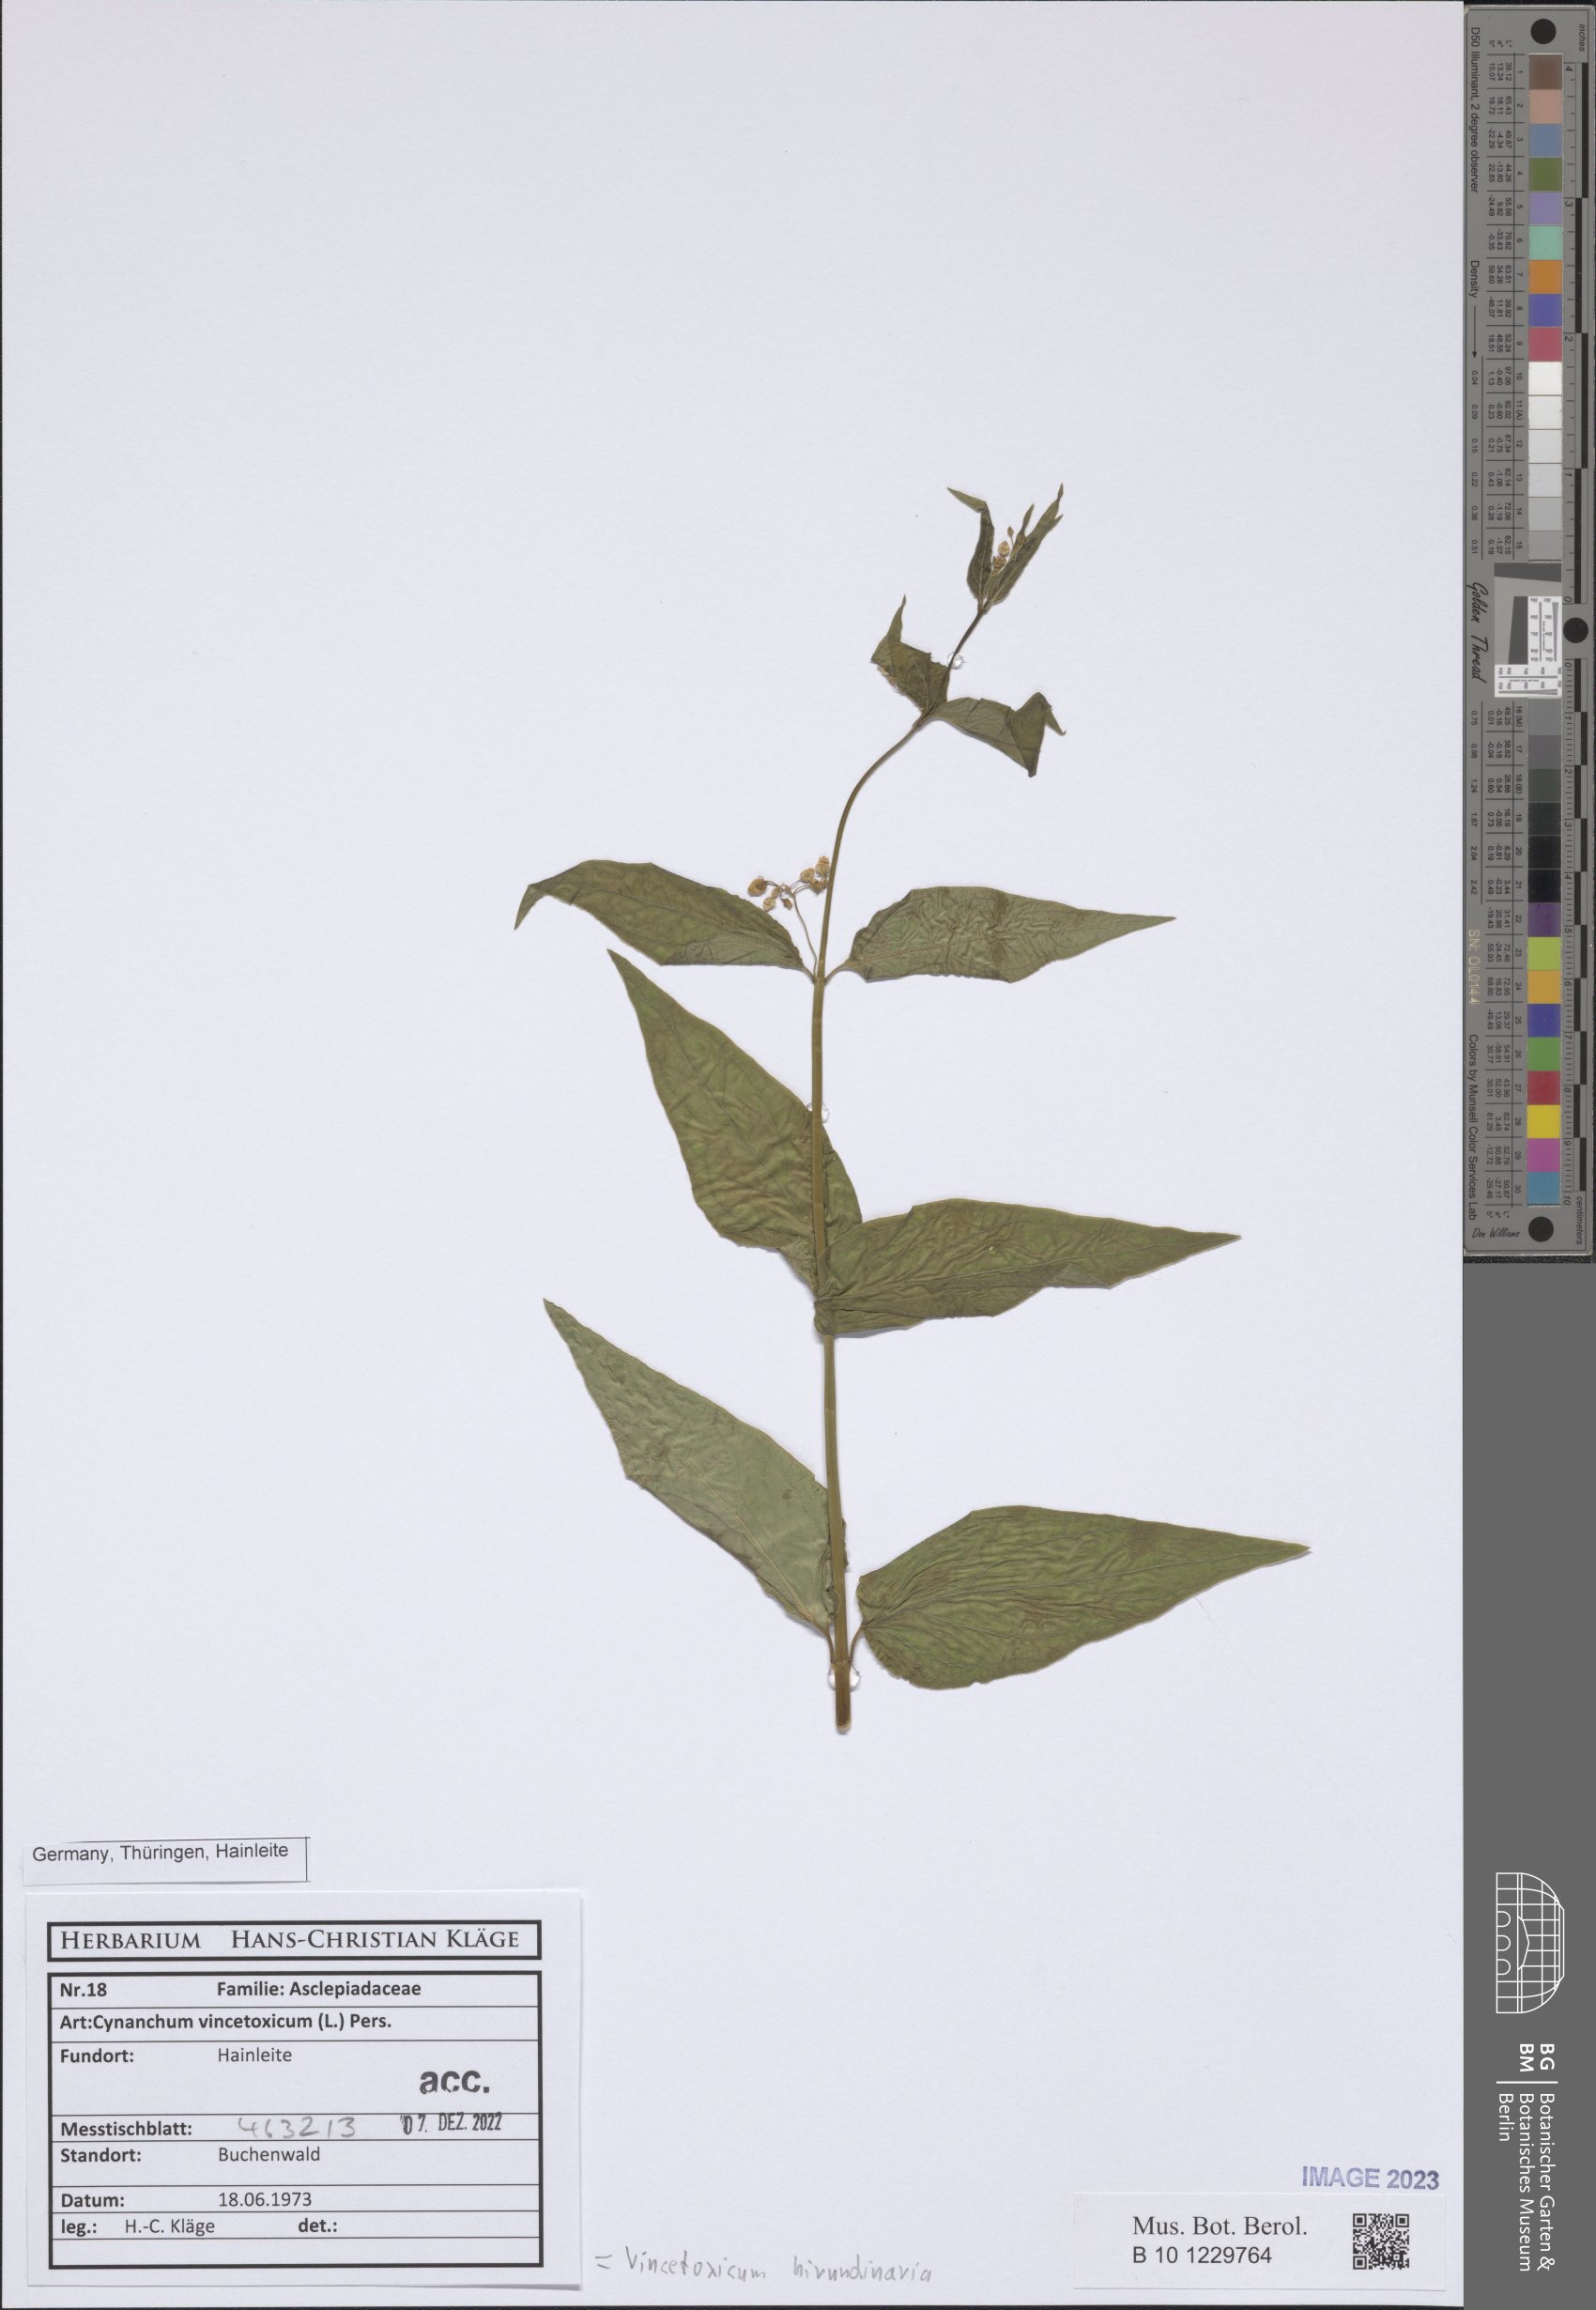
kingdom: Plantae
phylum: Tracheophyta
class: Magnoliopsida
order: Gentianales
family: Apocynaceae
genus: Vincetoxicum
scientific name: Vincetoxicum hirundinaria
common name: White swallowwort
